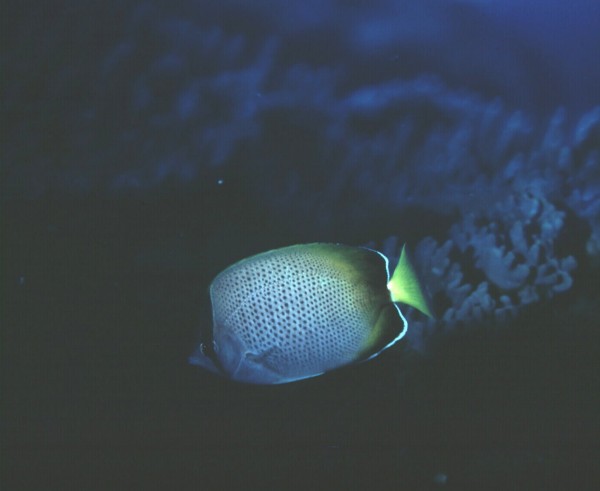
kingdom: Animalia
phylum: Chordata
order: Perciformes
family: Chaetodontidae
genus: Chaetodon
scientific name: Chaetodon dolosus
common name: African butterflyfish
